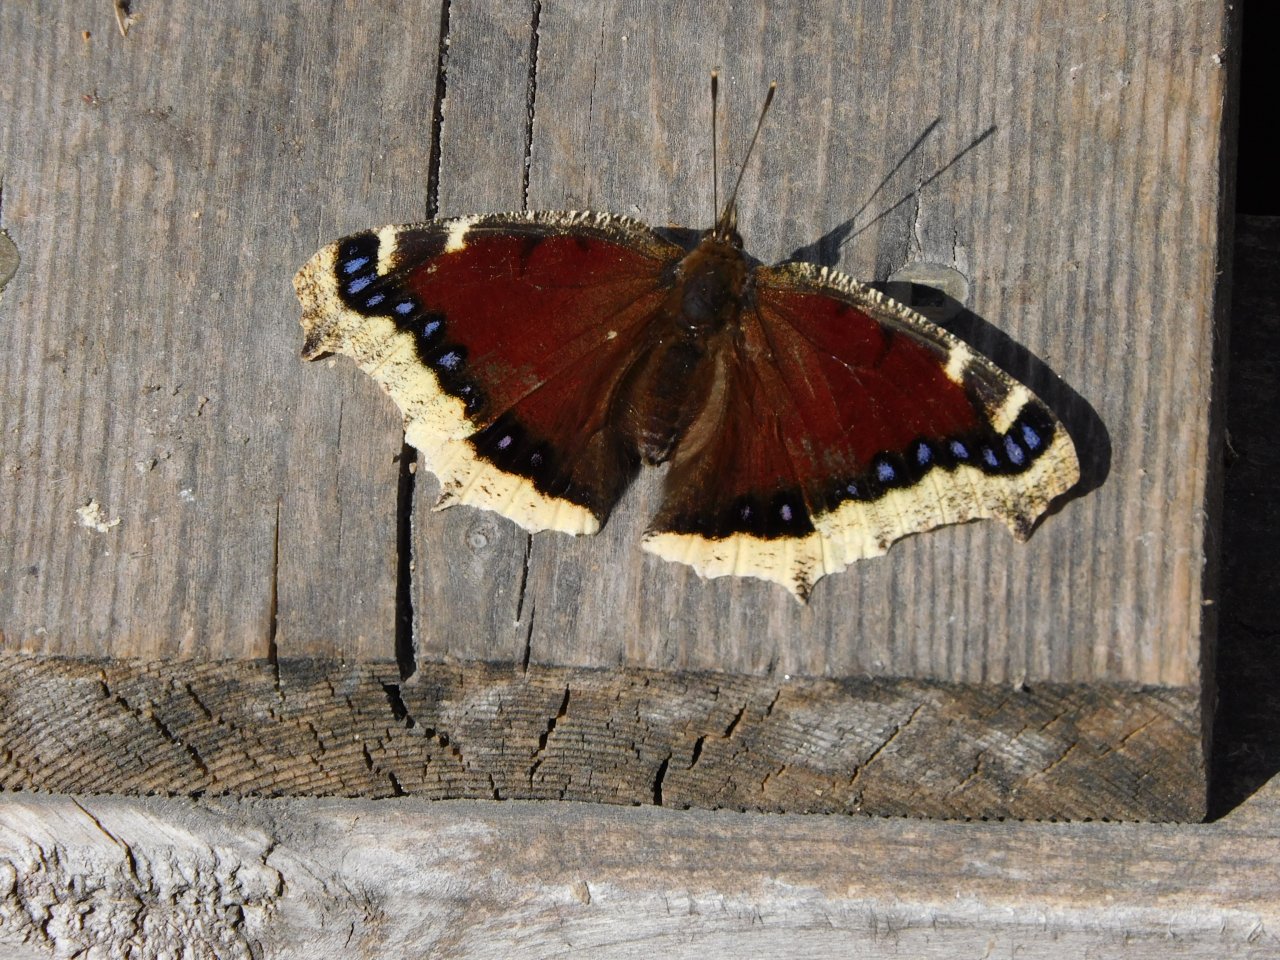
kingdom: Animalia
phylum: Arthropoda
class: Insecta
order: Lepidoptera
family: Nymphalidae
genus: Nymphalis
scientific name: Nymphalis antiopa
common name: Mourning Cloak
